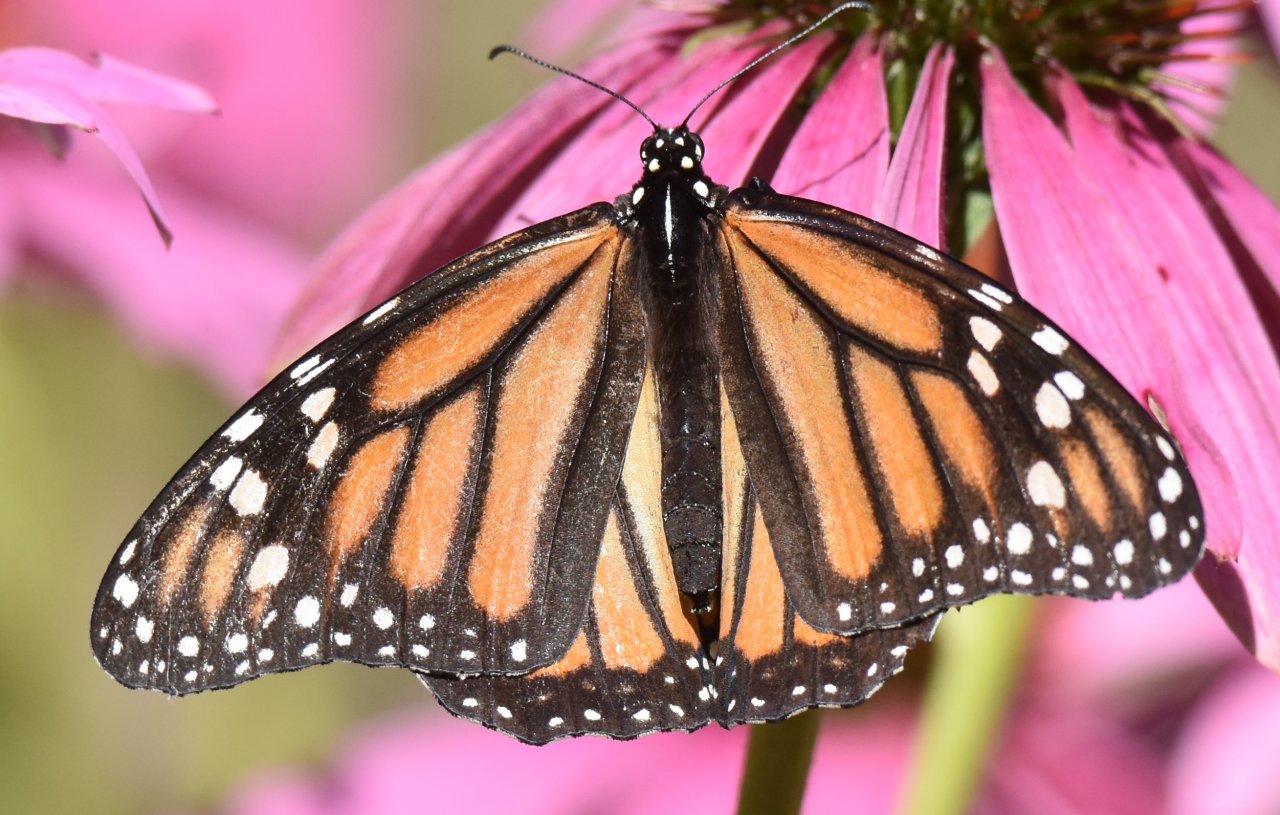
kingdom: Animalia
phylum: Arthropoda
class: Insecta
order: Lepidoptera
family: Nymphalidae
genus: Danaus
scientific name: Danaus plexippus
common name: Monarch
